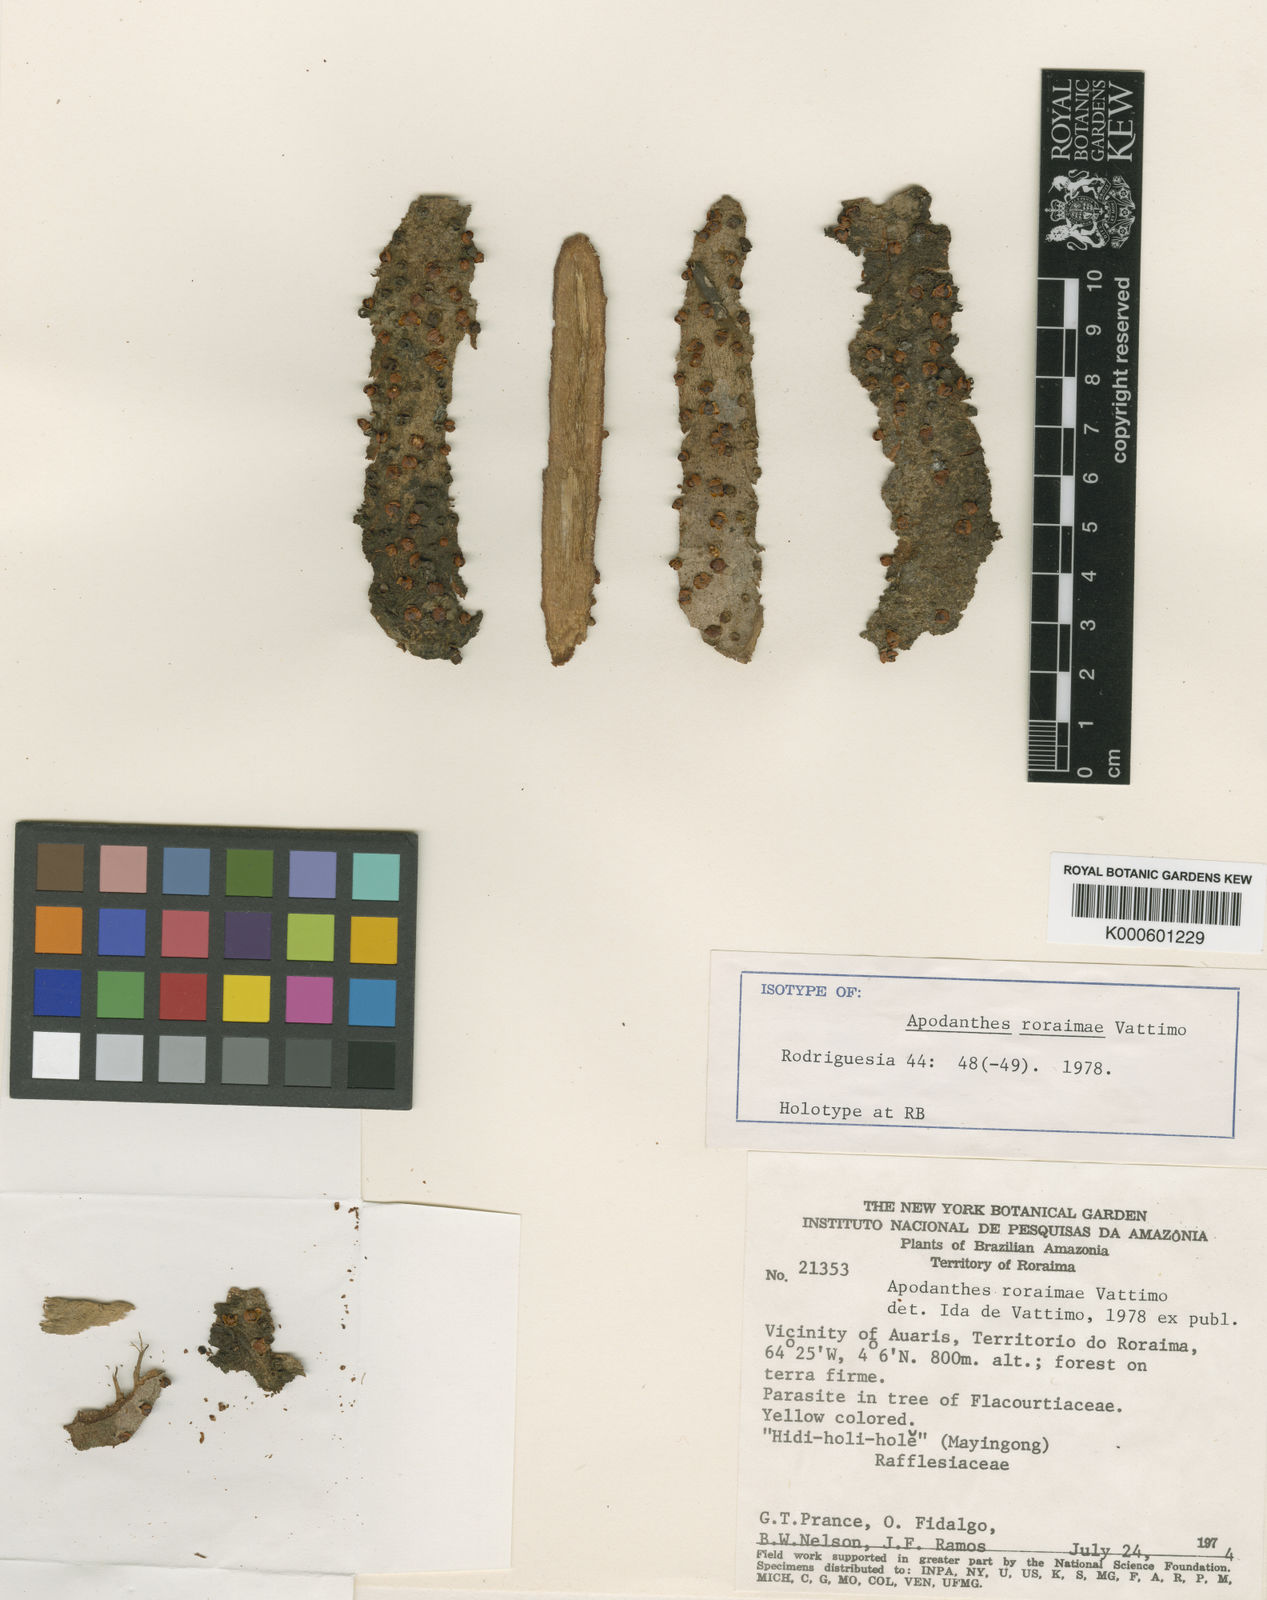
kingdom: Plantae
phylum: Tracheophyta
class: Magnoliopsida
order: Cucurbitales
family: Apodanthaceae
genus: Apodanthes
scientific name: Apodanthes caseariae
